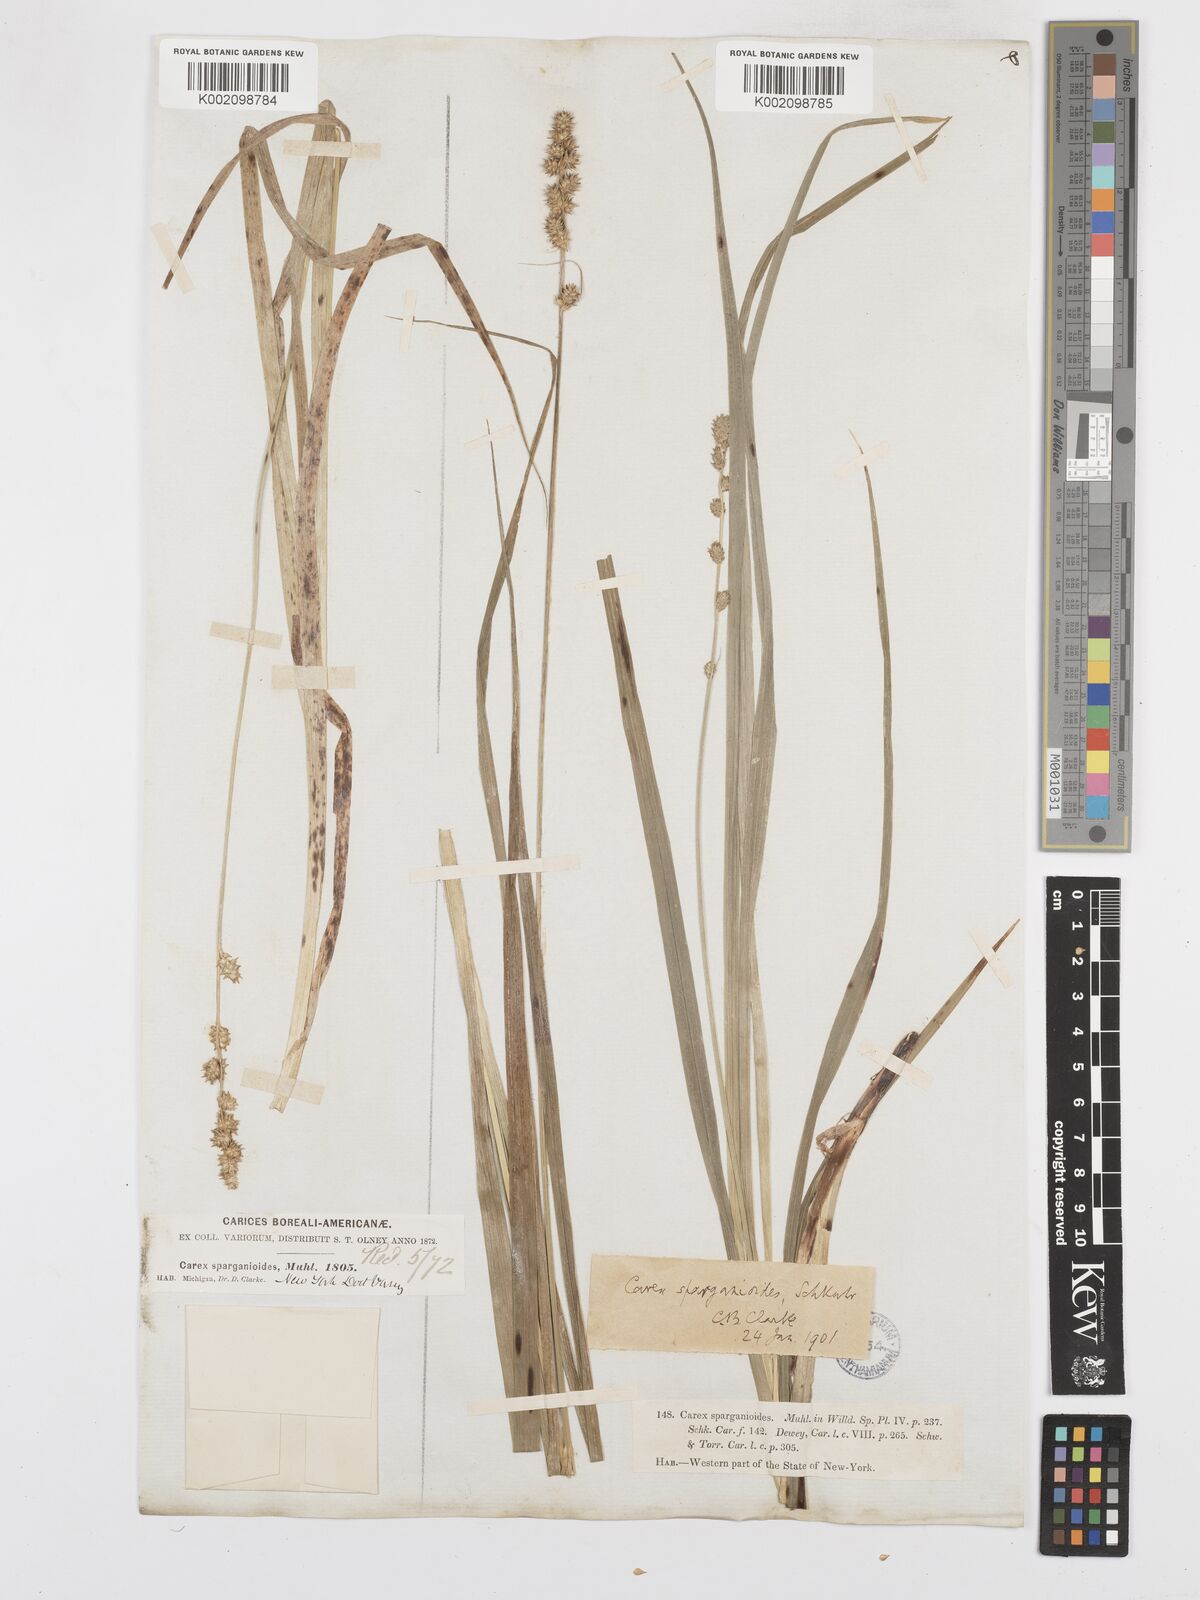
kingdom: Plantae
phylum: Tracheophyta
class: Liliopsida
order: Poales
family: Cyperaceae
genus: Carex
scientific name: Carex sparganioides
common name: Burreed sedge
